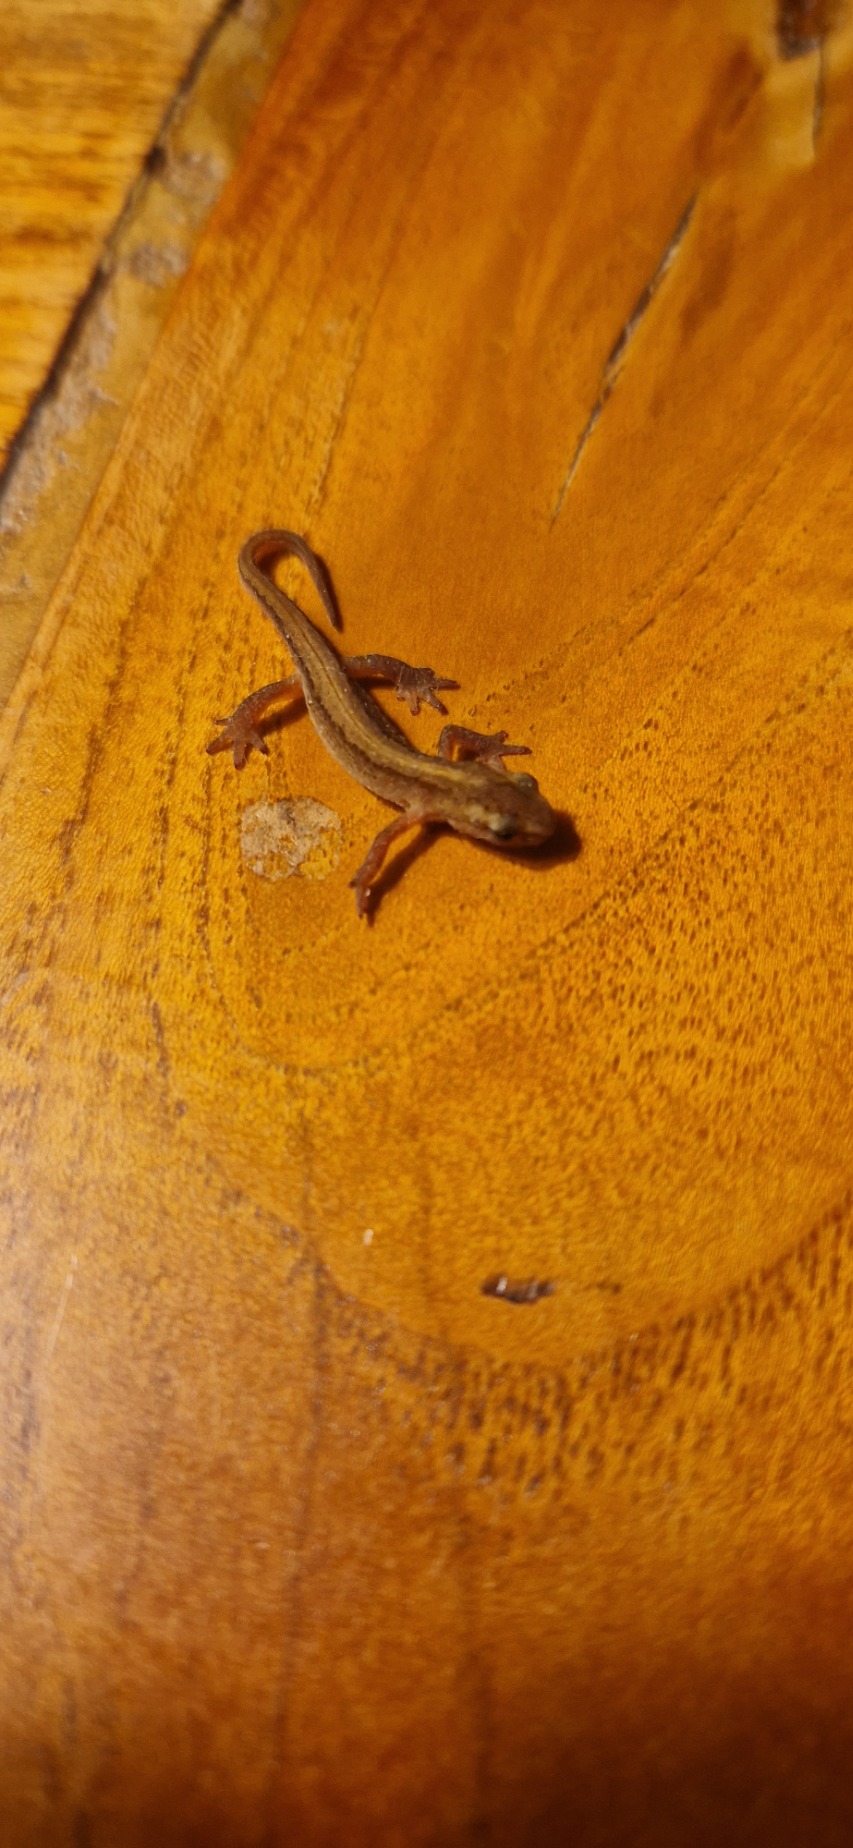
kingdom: Animalia
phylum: Chordata
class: Amphibia
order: Caudata
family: Salamandridae
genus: Lissotriton
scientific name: Lissotriton vulgaris
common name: Lille vandsalamander
